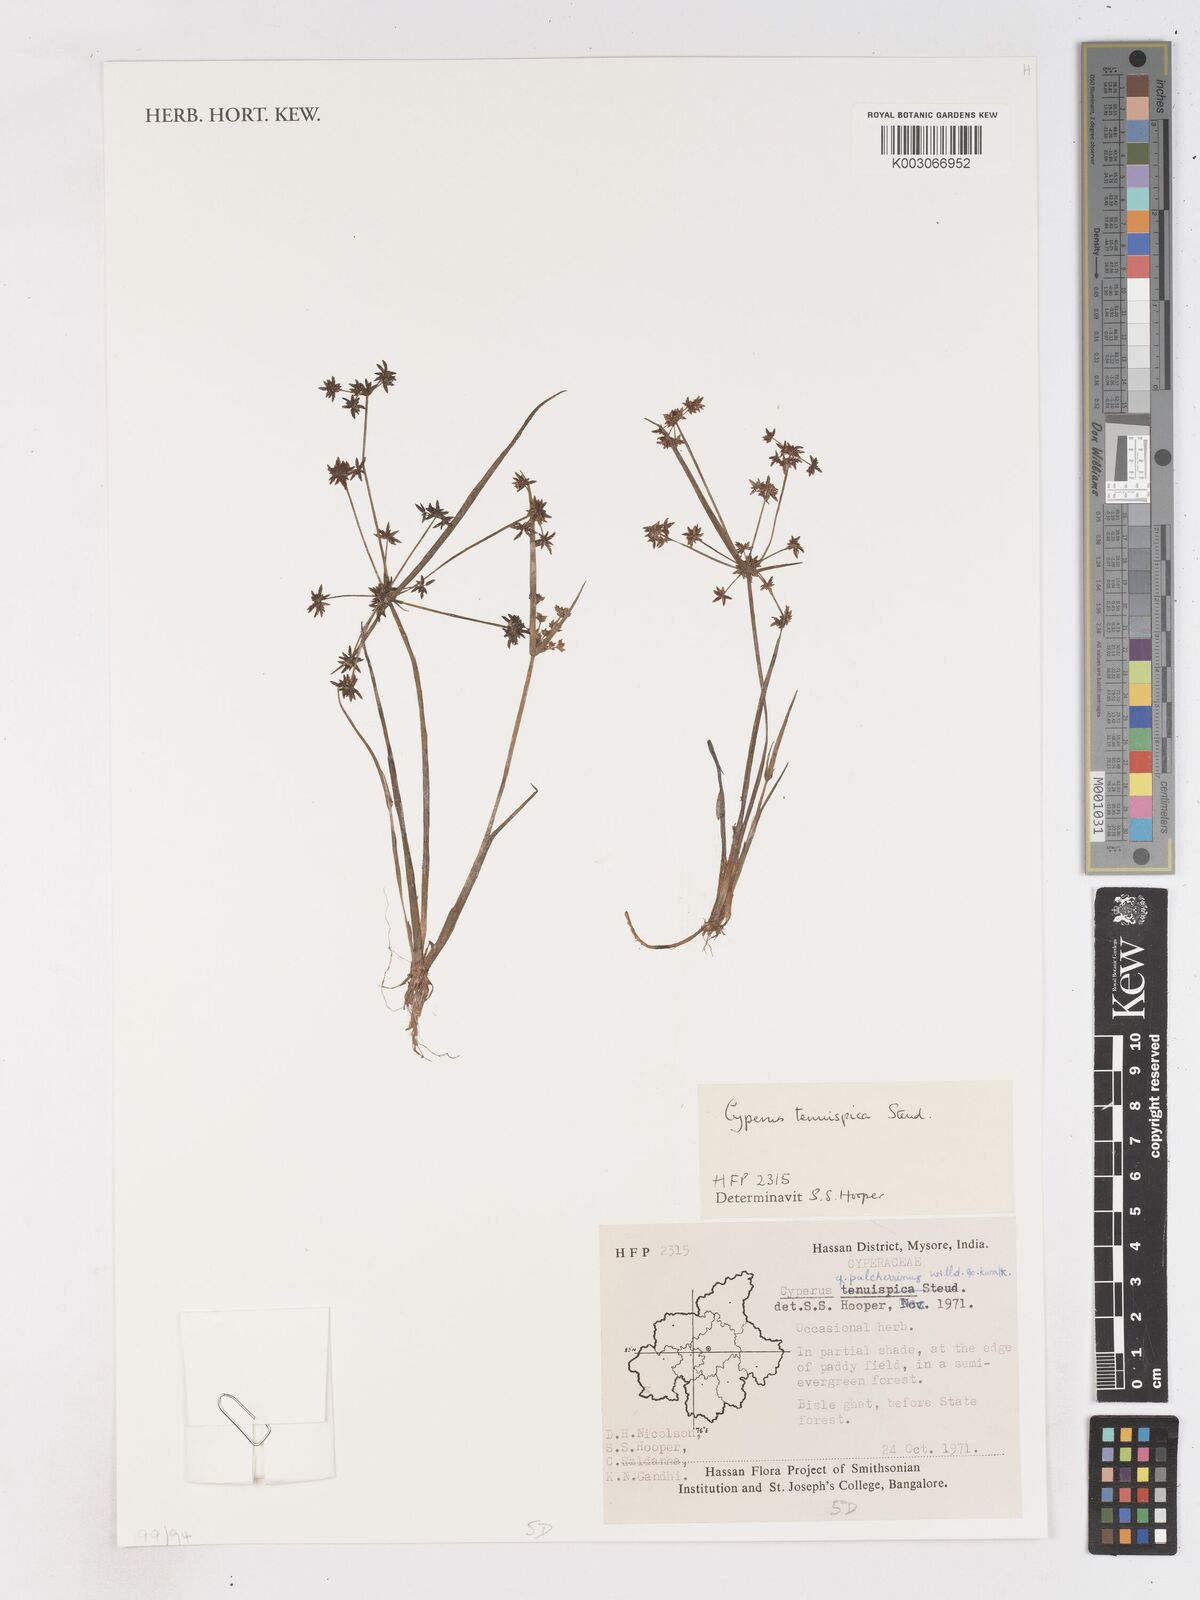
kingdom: Plantae
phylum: Tracheophyta
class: Liliopsida
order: Poales
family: Cyperaceae
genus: Cyperus
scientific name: Cyperus tenuispica
